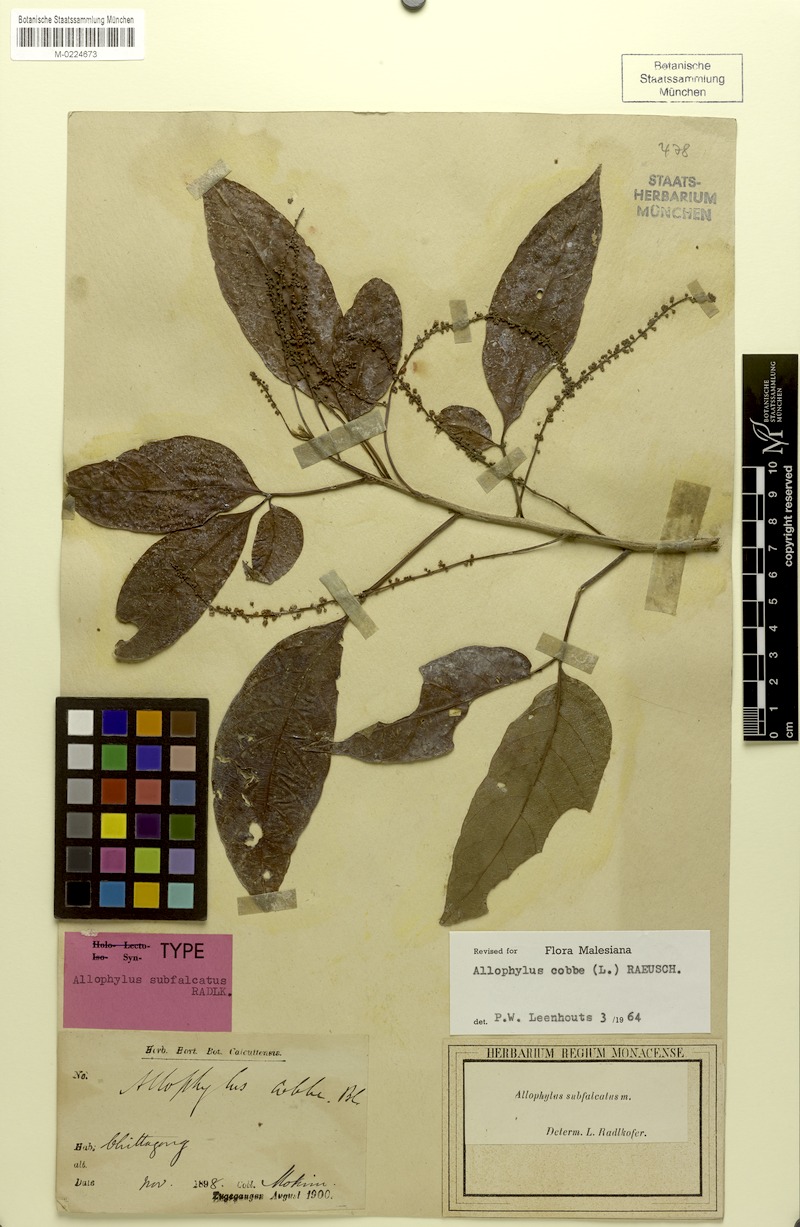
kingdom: Plantae
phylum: Tracheophyta
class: Magnoliopsida
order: Sapindales
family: Sapindaceae
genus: Allophylus
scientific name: Allophylus subfalcatus
